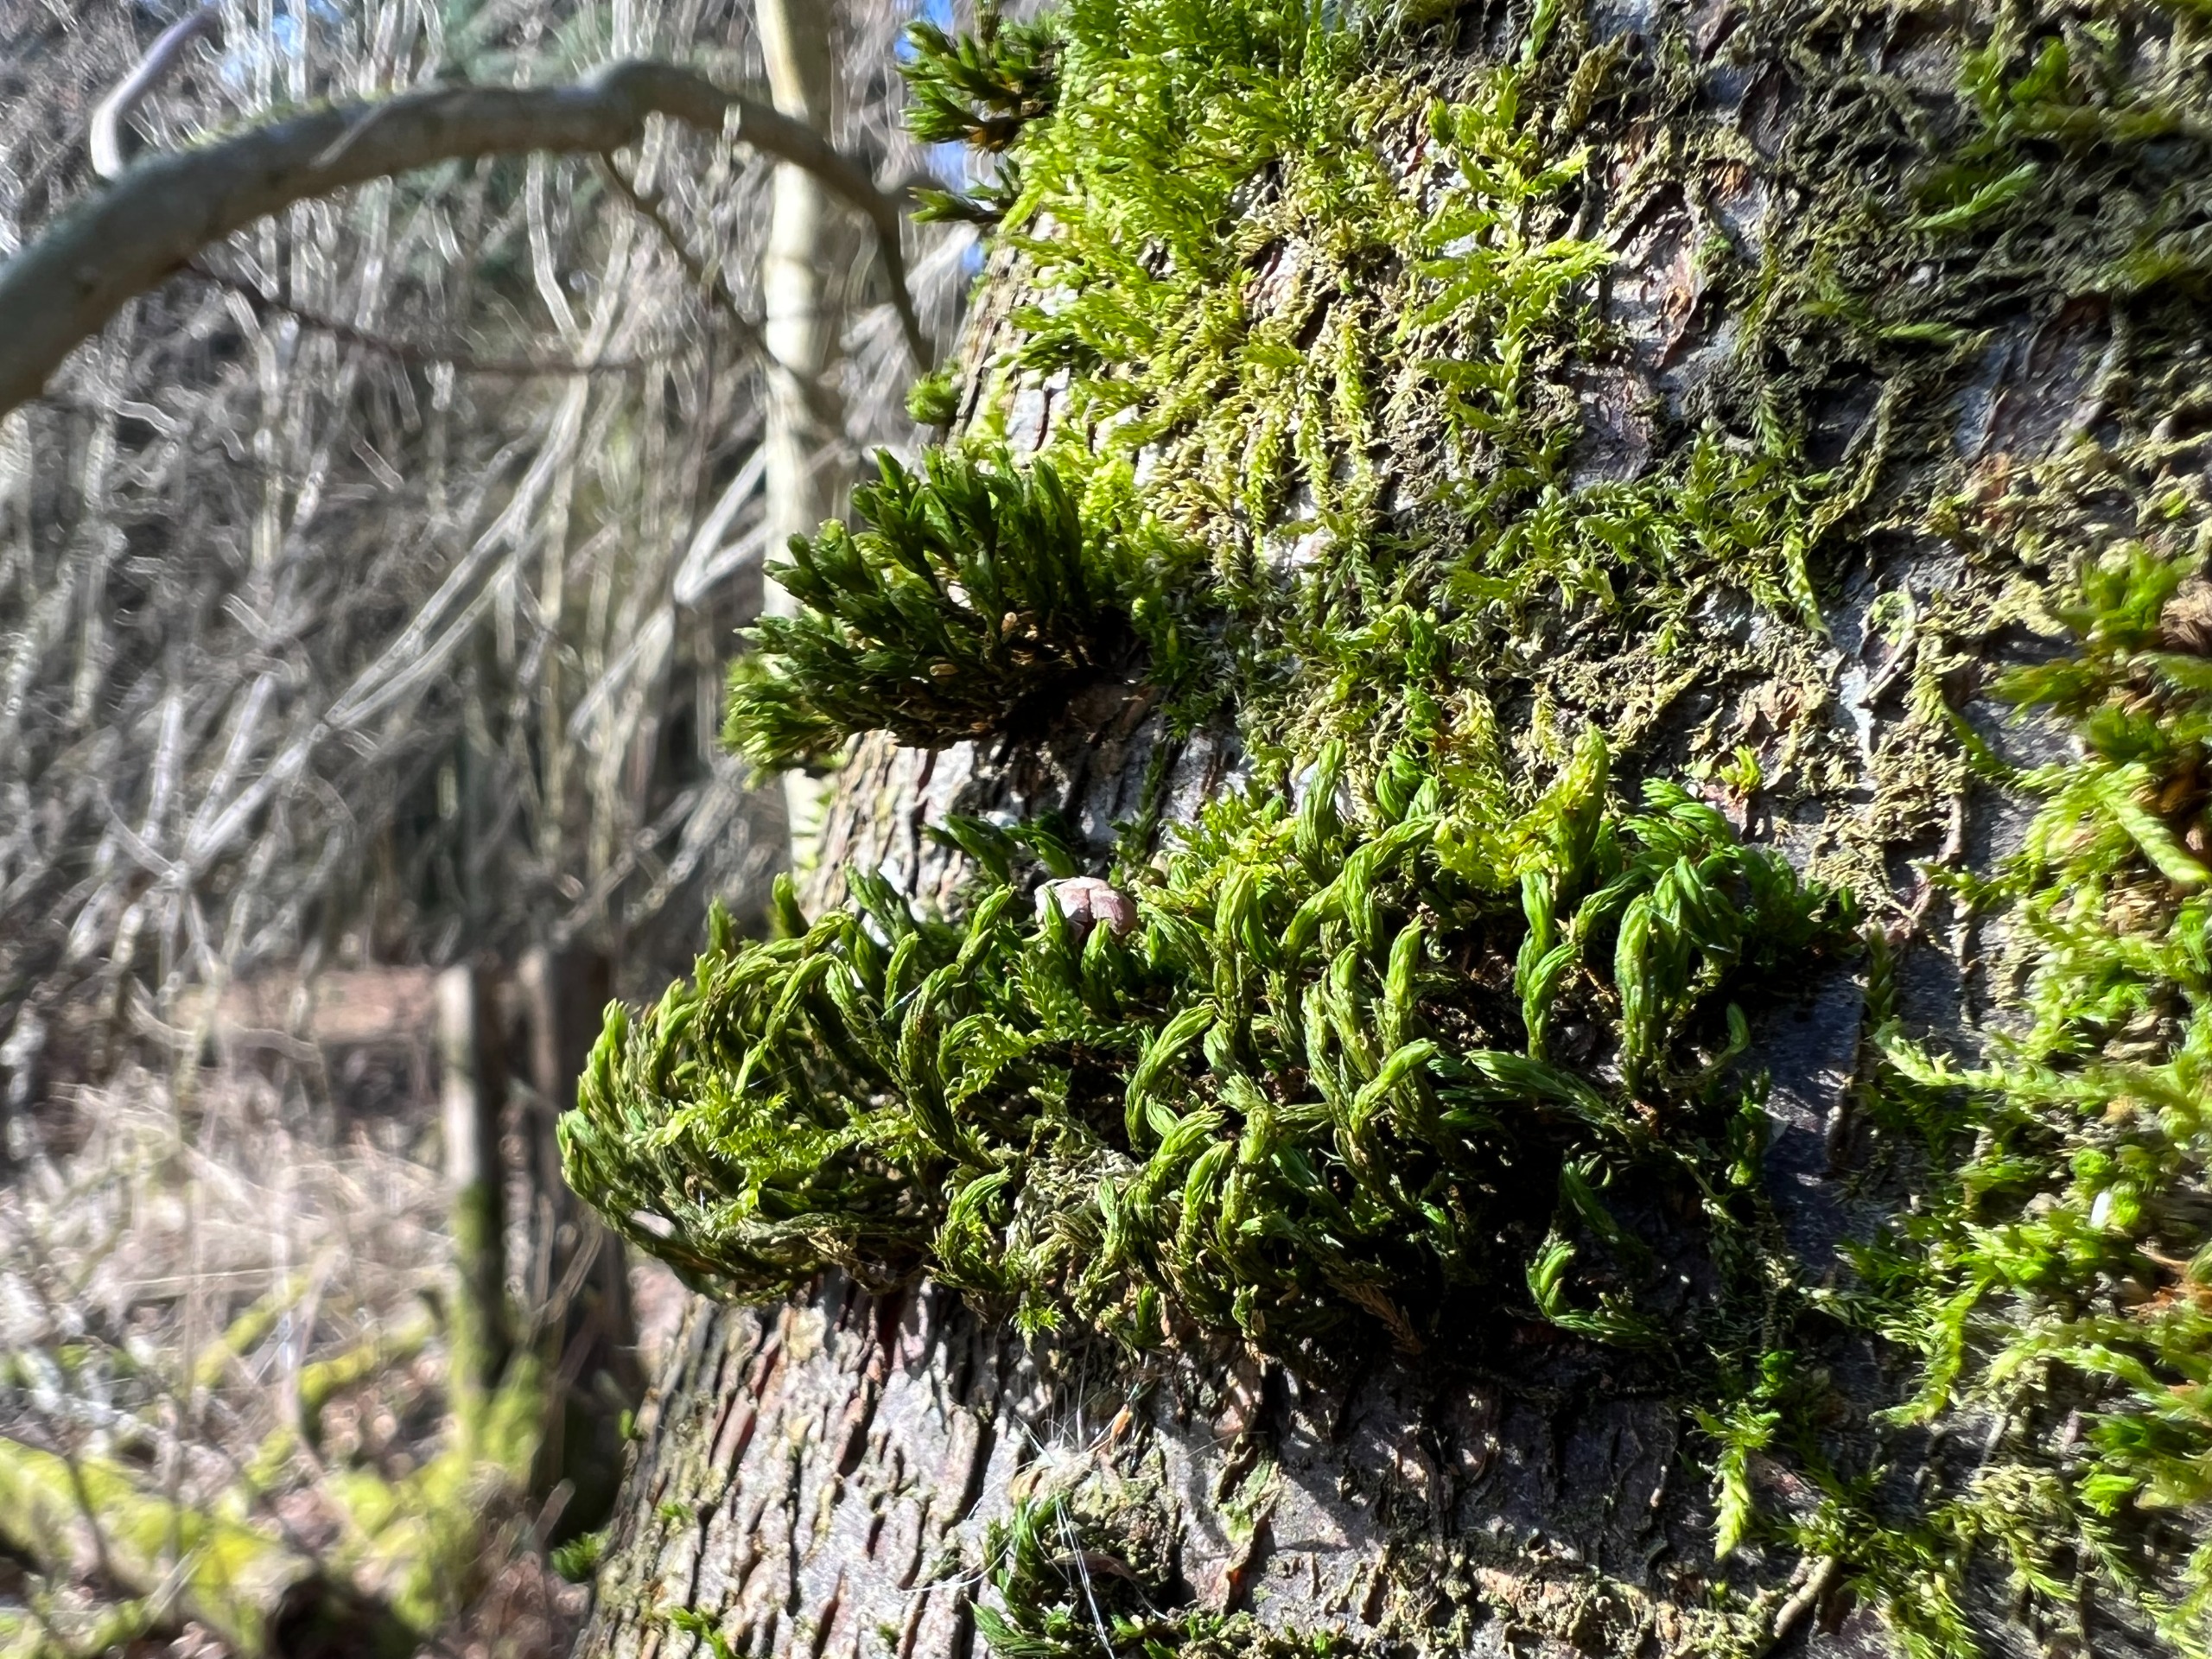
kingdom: Plantae
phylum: Bryophyta
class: Bryopsida
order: Orthotrichales
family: Orthotrichaceae
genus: Pulvigera
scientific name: Pulvigera lyellii
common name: Stor furehætte
